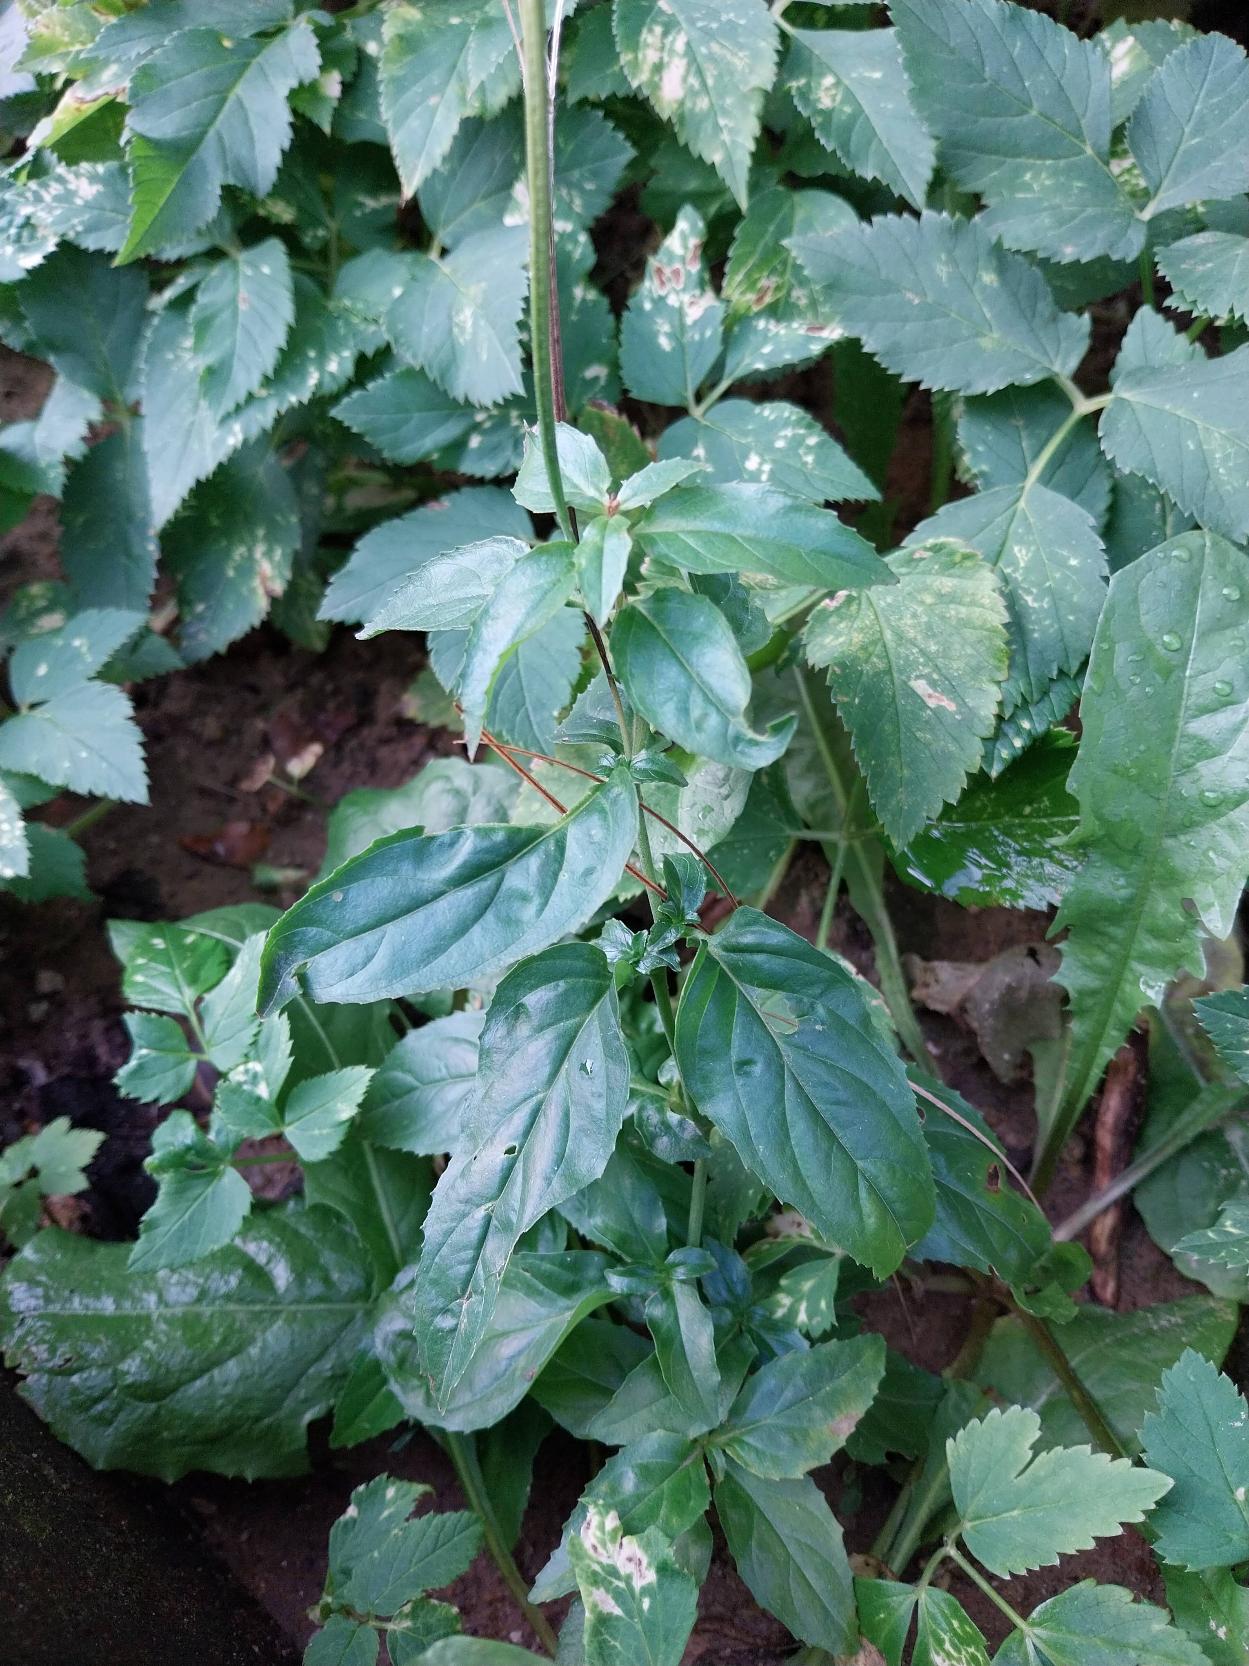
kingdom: Plantae
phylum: Tracheophyta
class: Magnoliopsida
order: Myrtales
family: Onagraceae
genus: Epilobium
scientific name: Epilobium roseum
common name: Rosen-dueurt
